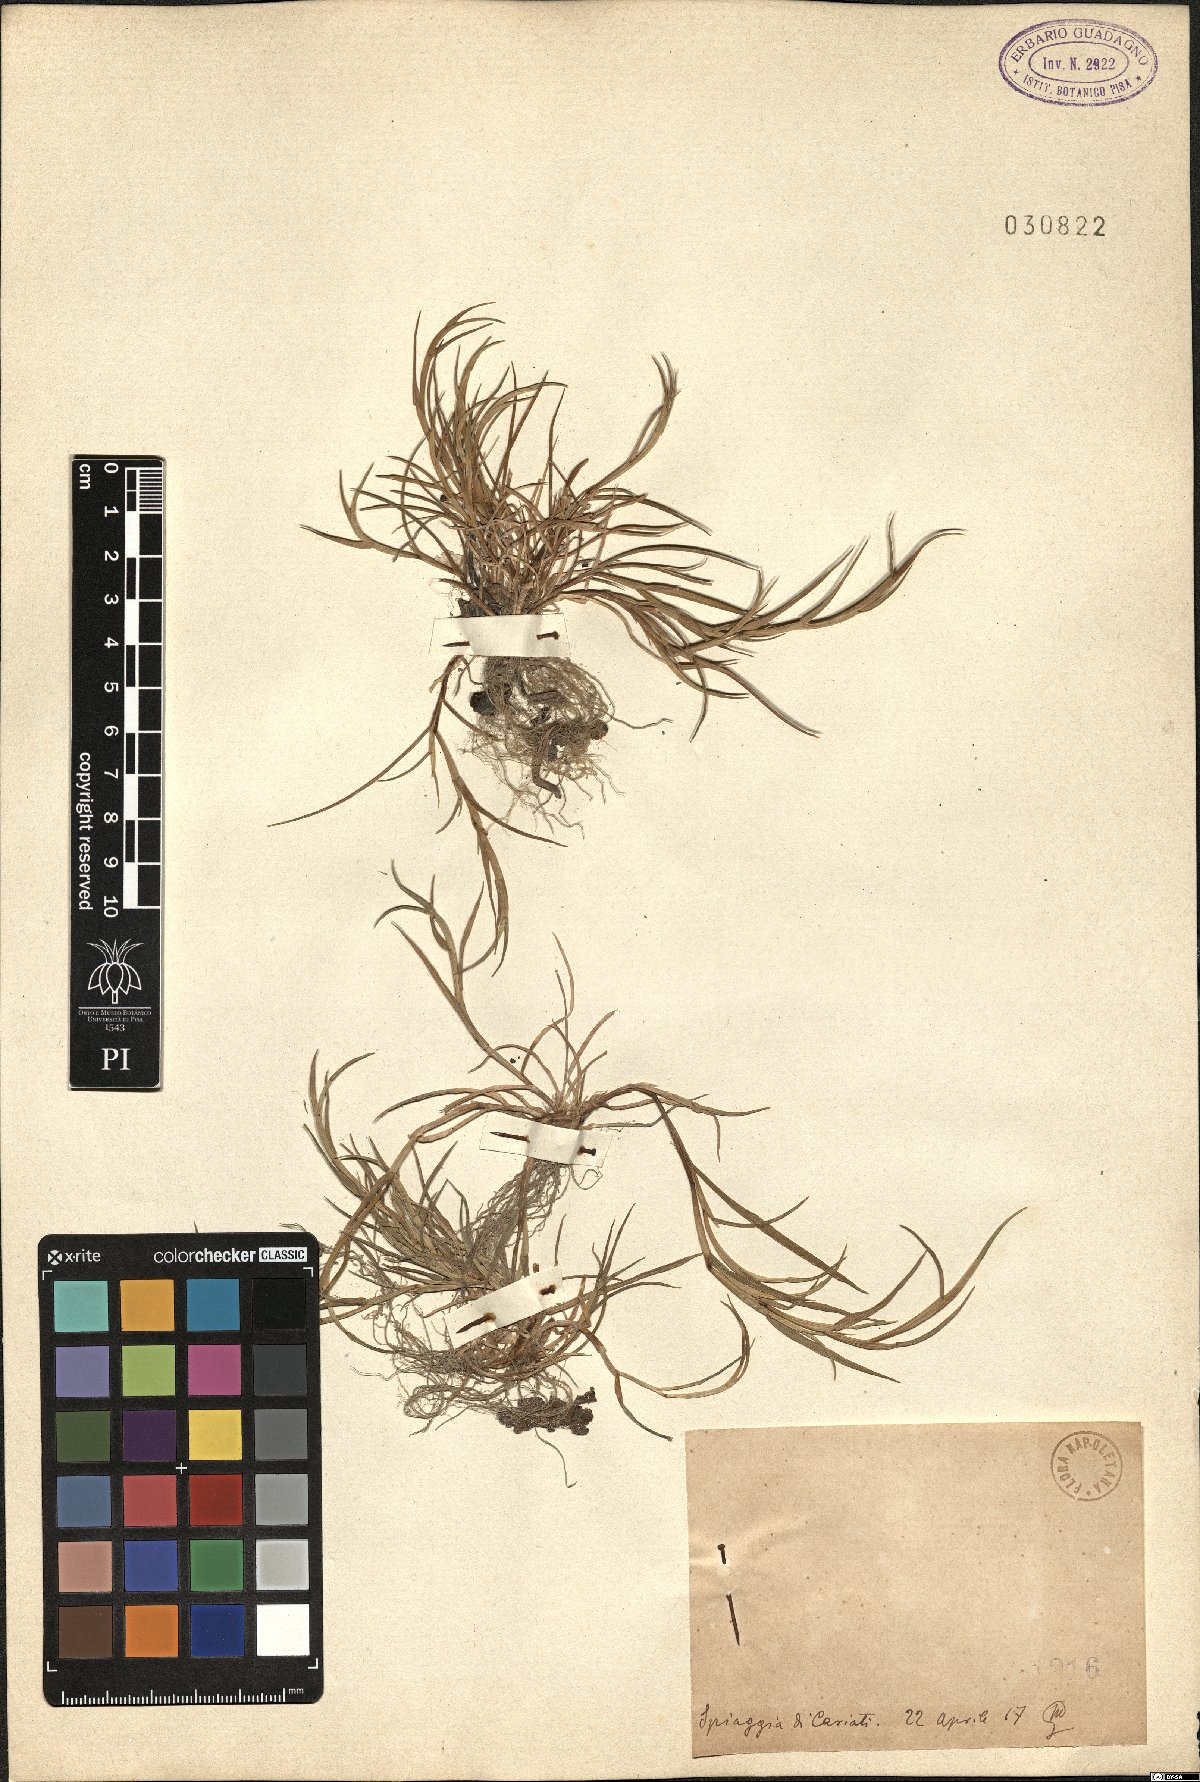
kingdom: Plantae
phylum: Tracheophyta
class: Liliopsida
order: Poales
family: Poaceae
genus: Lepturus
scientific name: Lepturus
